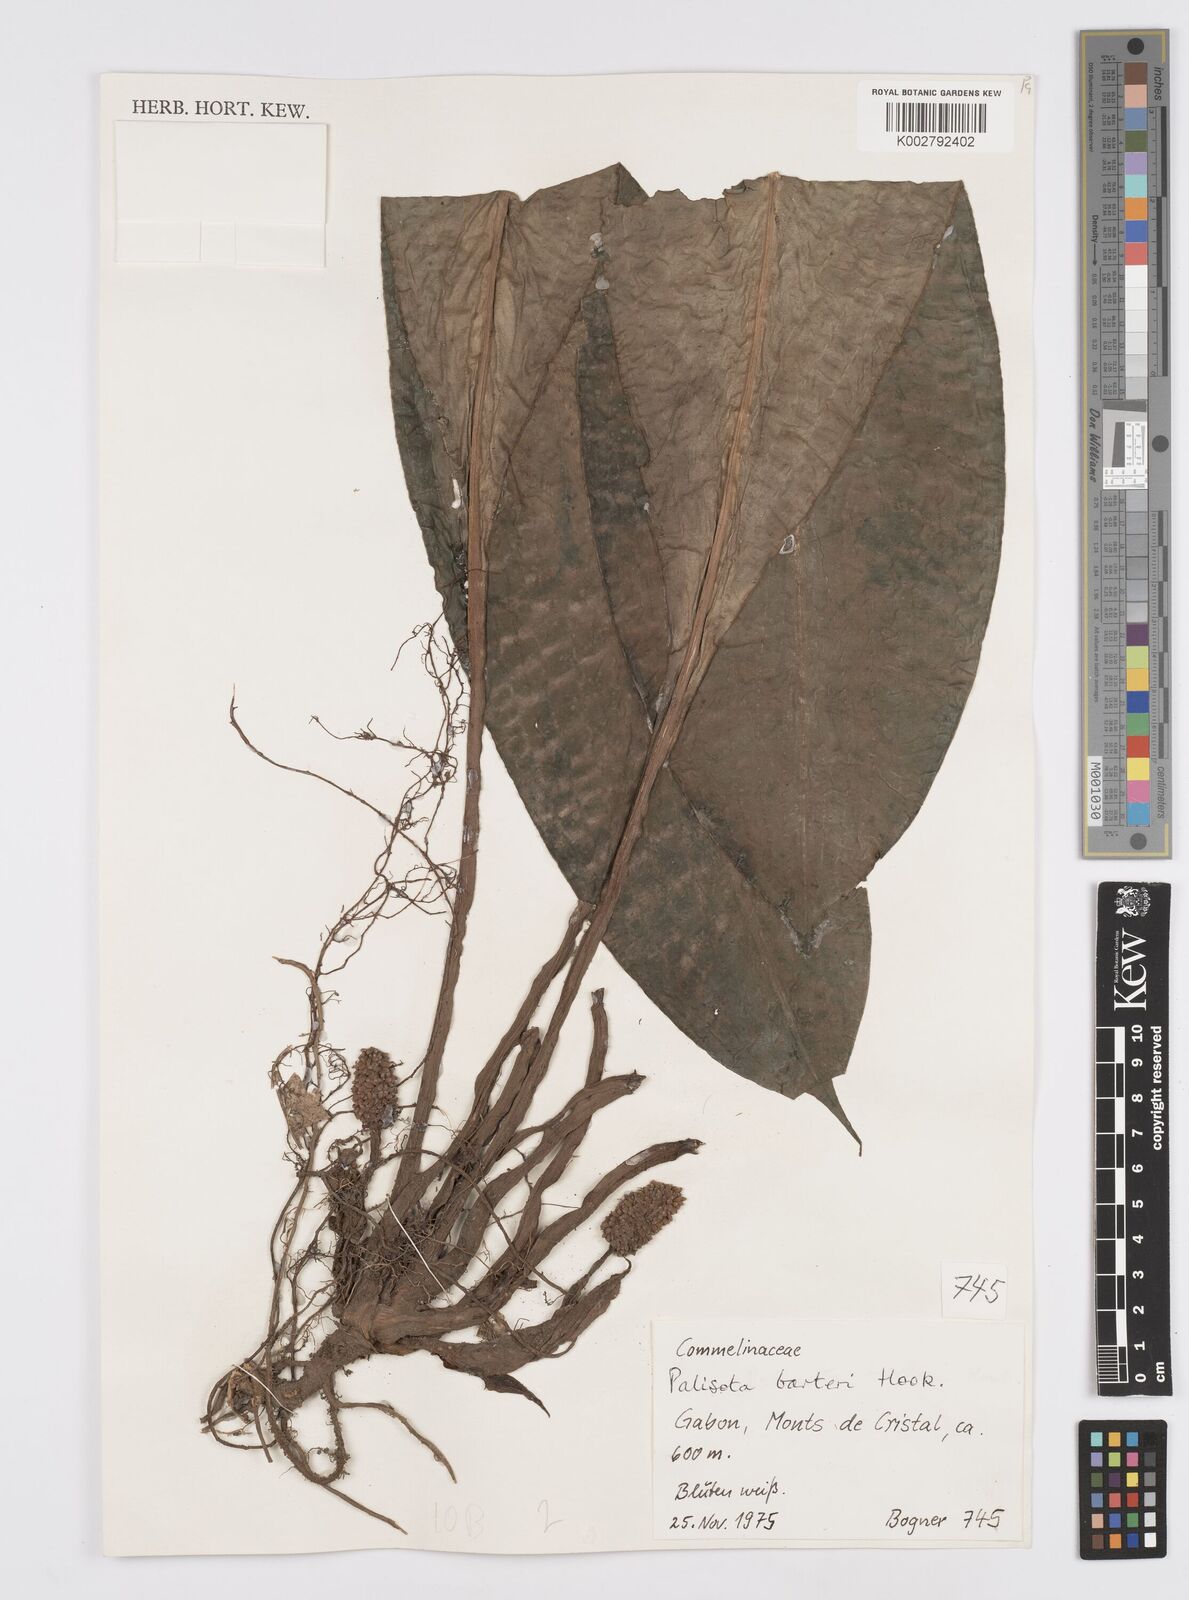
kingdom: Plantae
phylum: Tracheophyta
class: Liliopsida
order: Commelinales
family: Commelinaceae
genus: Palisota
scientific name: Palisota barteri
